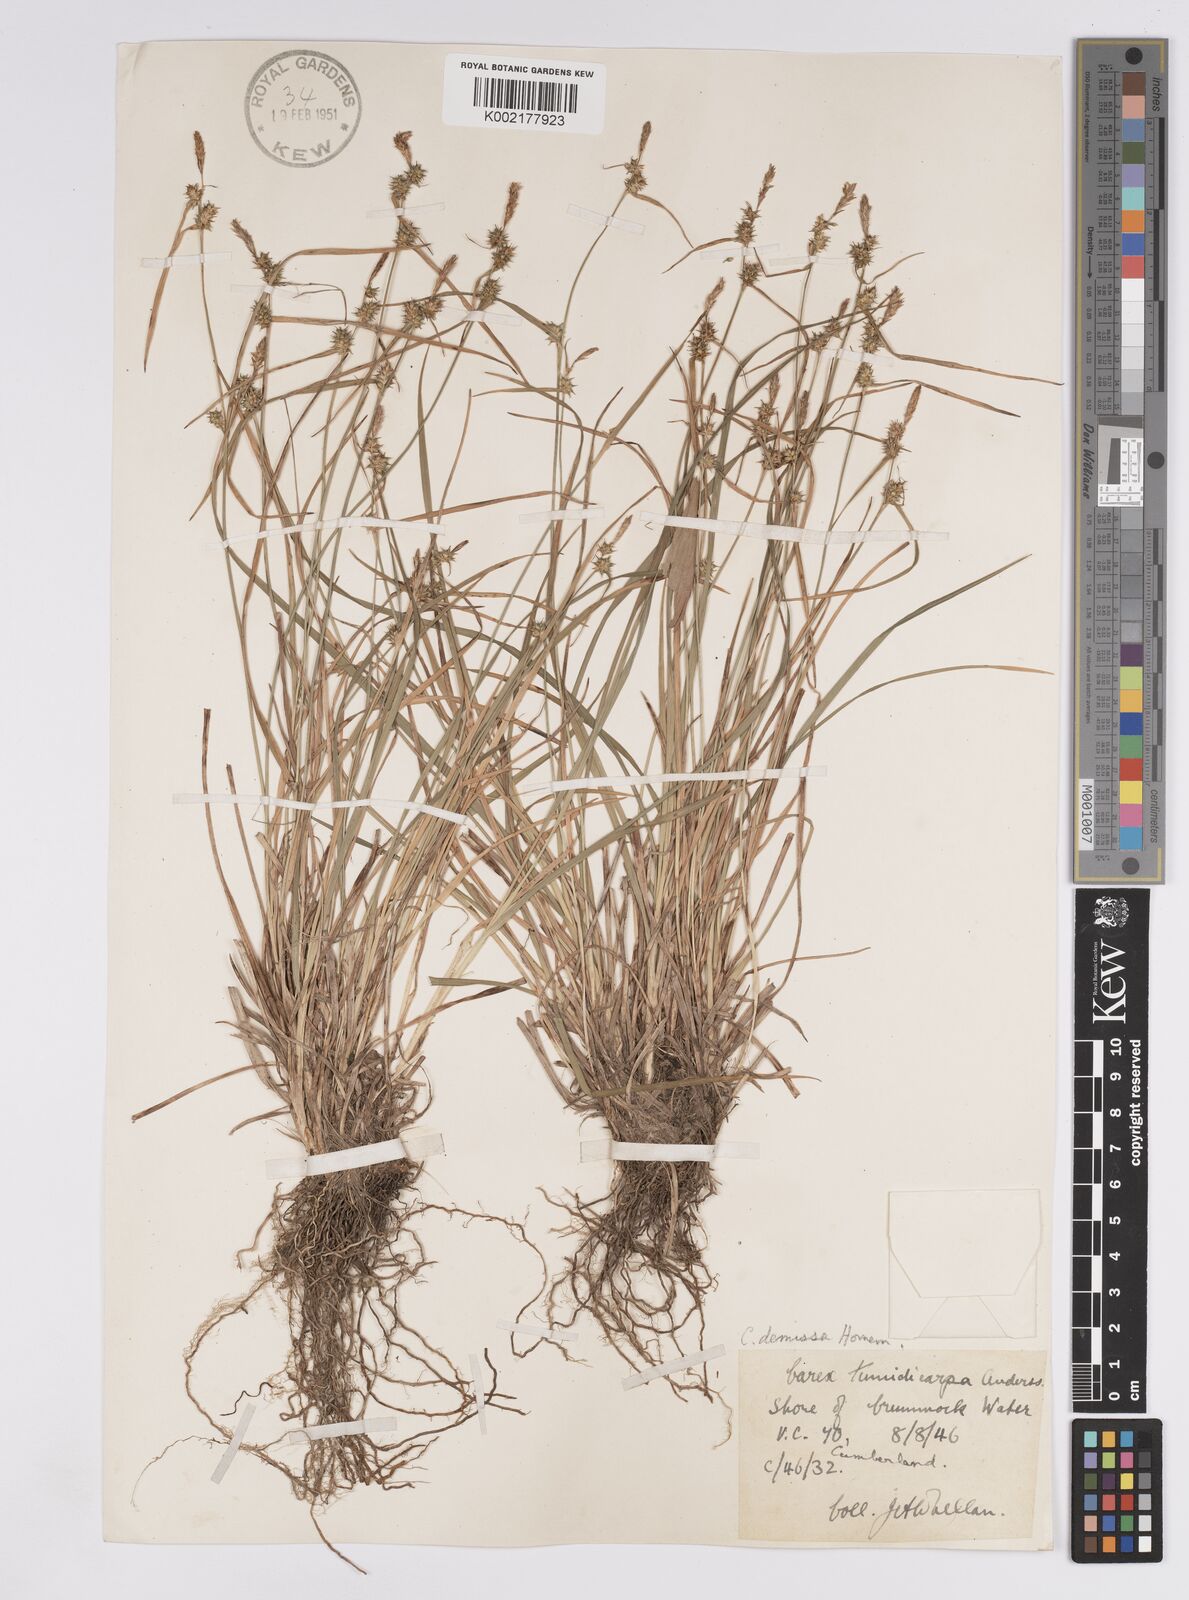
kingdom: Plantae
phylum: Tracheophyta
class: Liliopsida
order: Poales
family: Cyperaceae
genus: Carex
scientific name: Carex demissa
